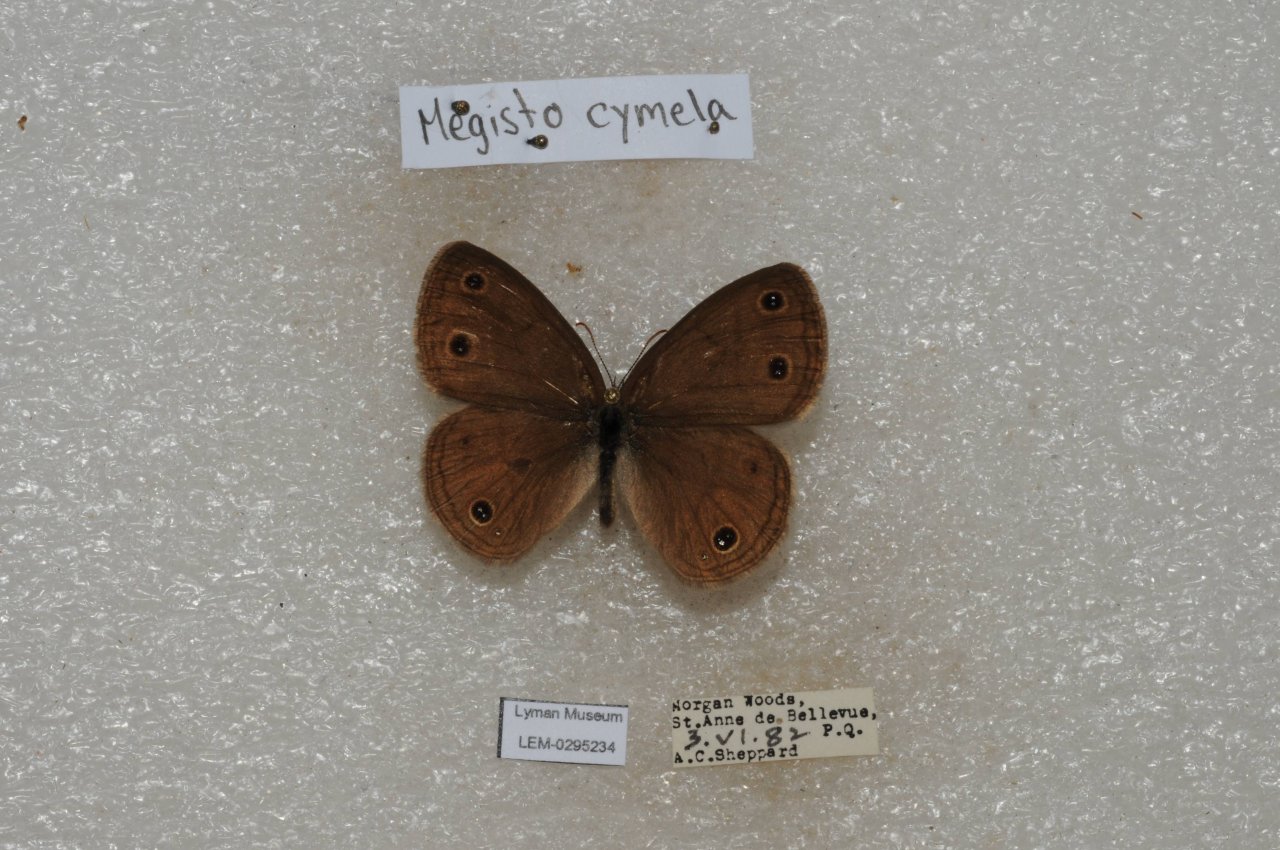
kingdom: Animalia
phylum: Arthropoda
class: Insecta
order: Lepidoptera
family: Nymphalidae
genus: Euptychia
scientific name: Euptychia cymela
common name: Little Wood Satyr
